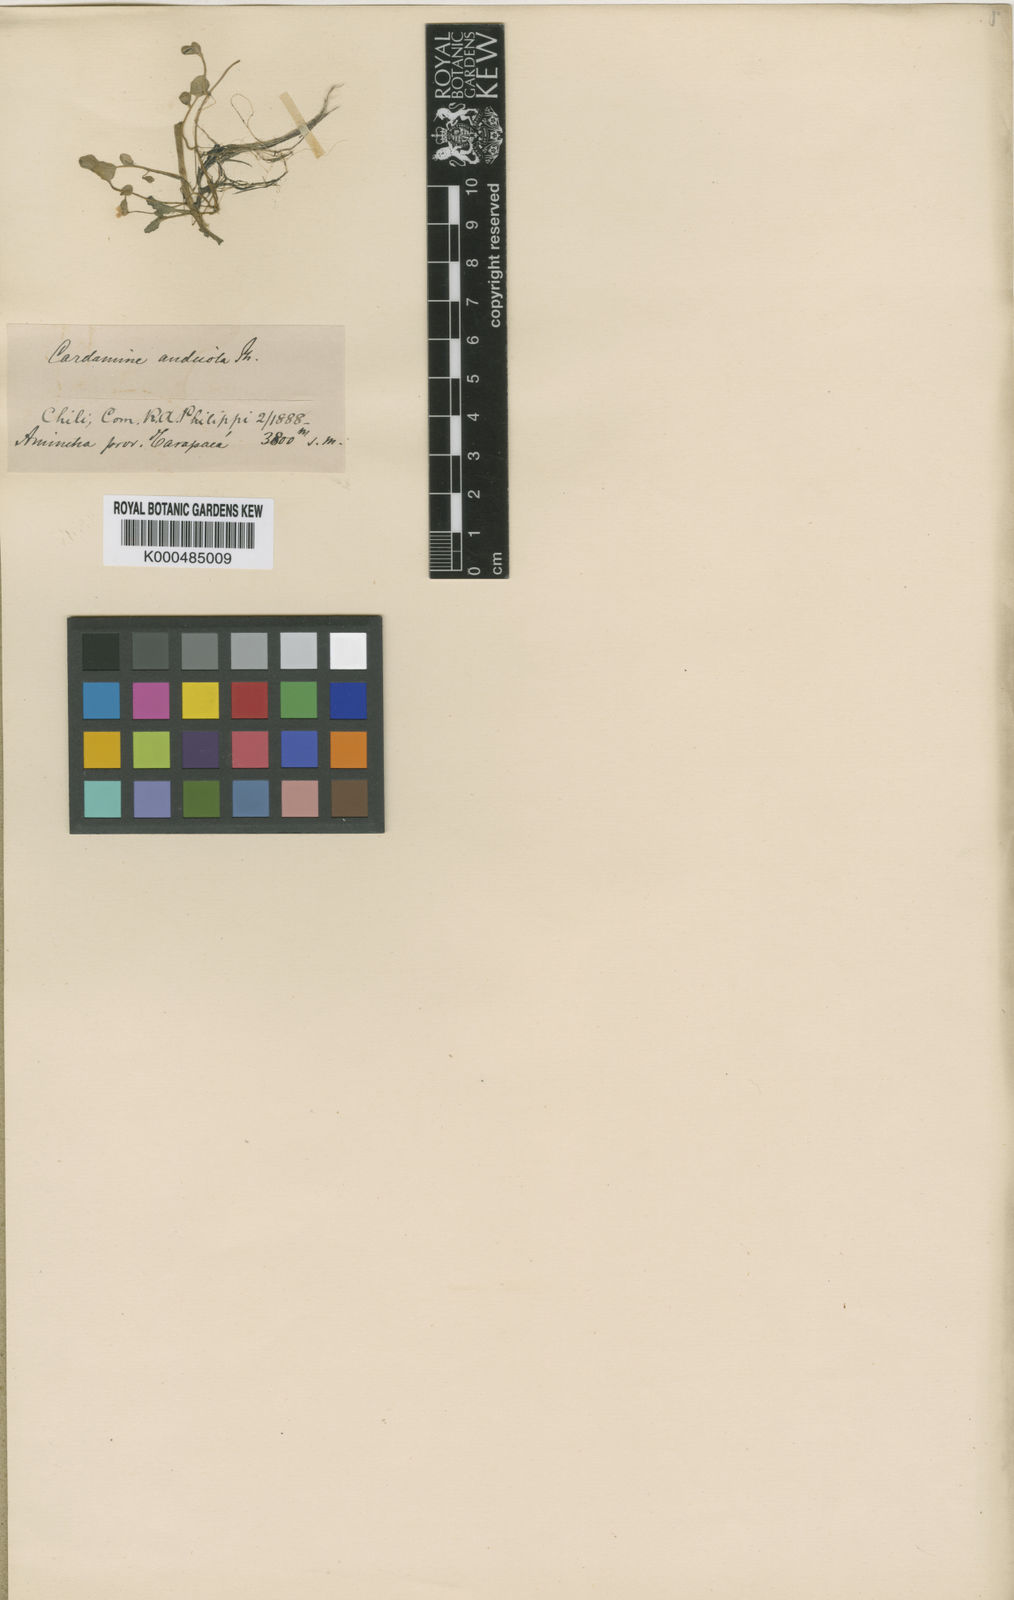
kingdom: Plantae
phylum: Tracheophyta
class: Magnoliopsida
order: Brassicales
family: Brassicaceae
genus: Cardamine
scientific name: Cardamine bonariensis
